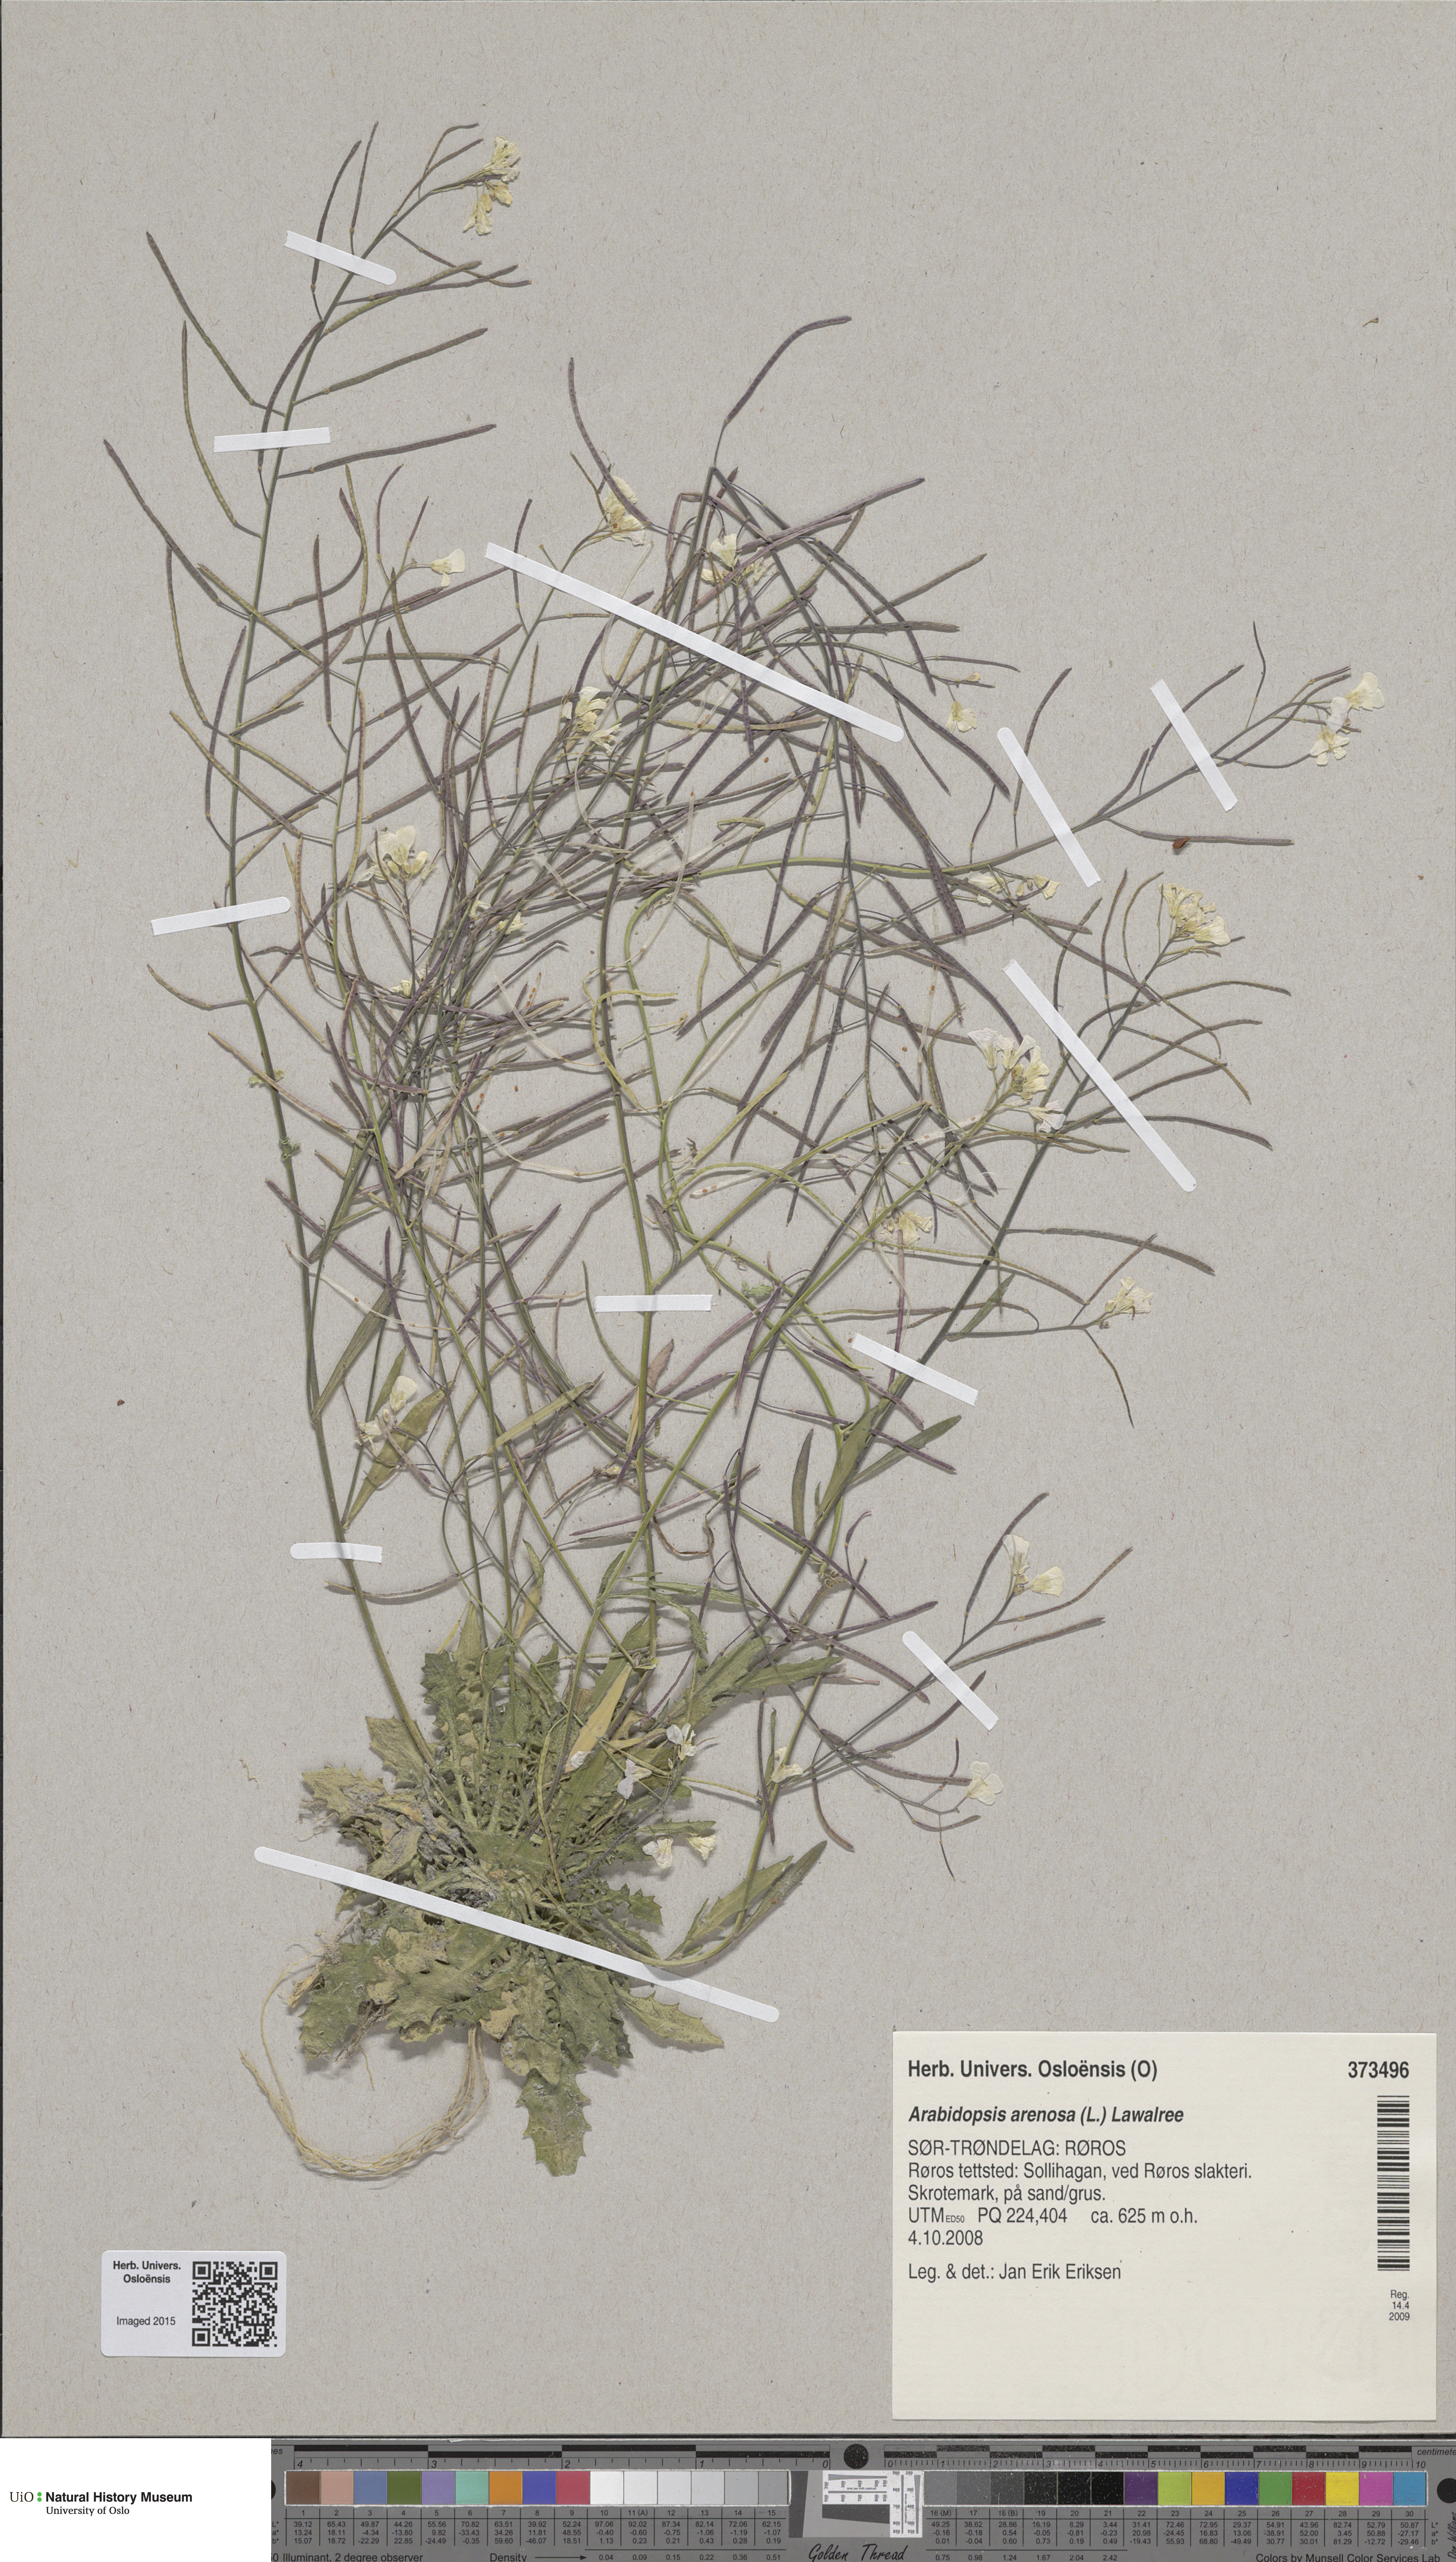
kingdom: Plantae
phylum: Tracheophyta
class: Magnoliopsida
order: Brassicales
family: Brassicaceae
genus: Arabidopsis
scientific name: Arabidopsis arenosa
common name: Sand rock-cress
